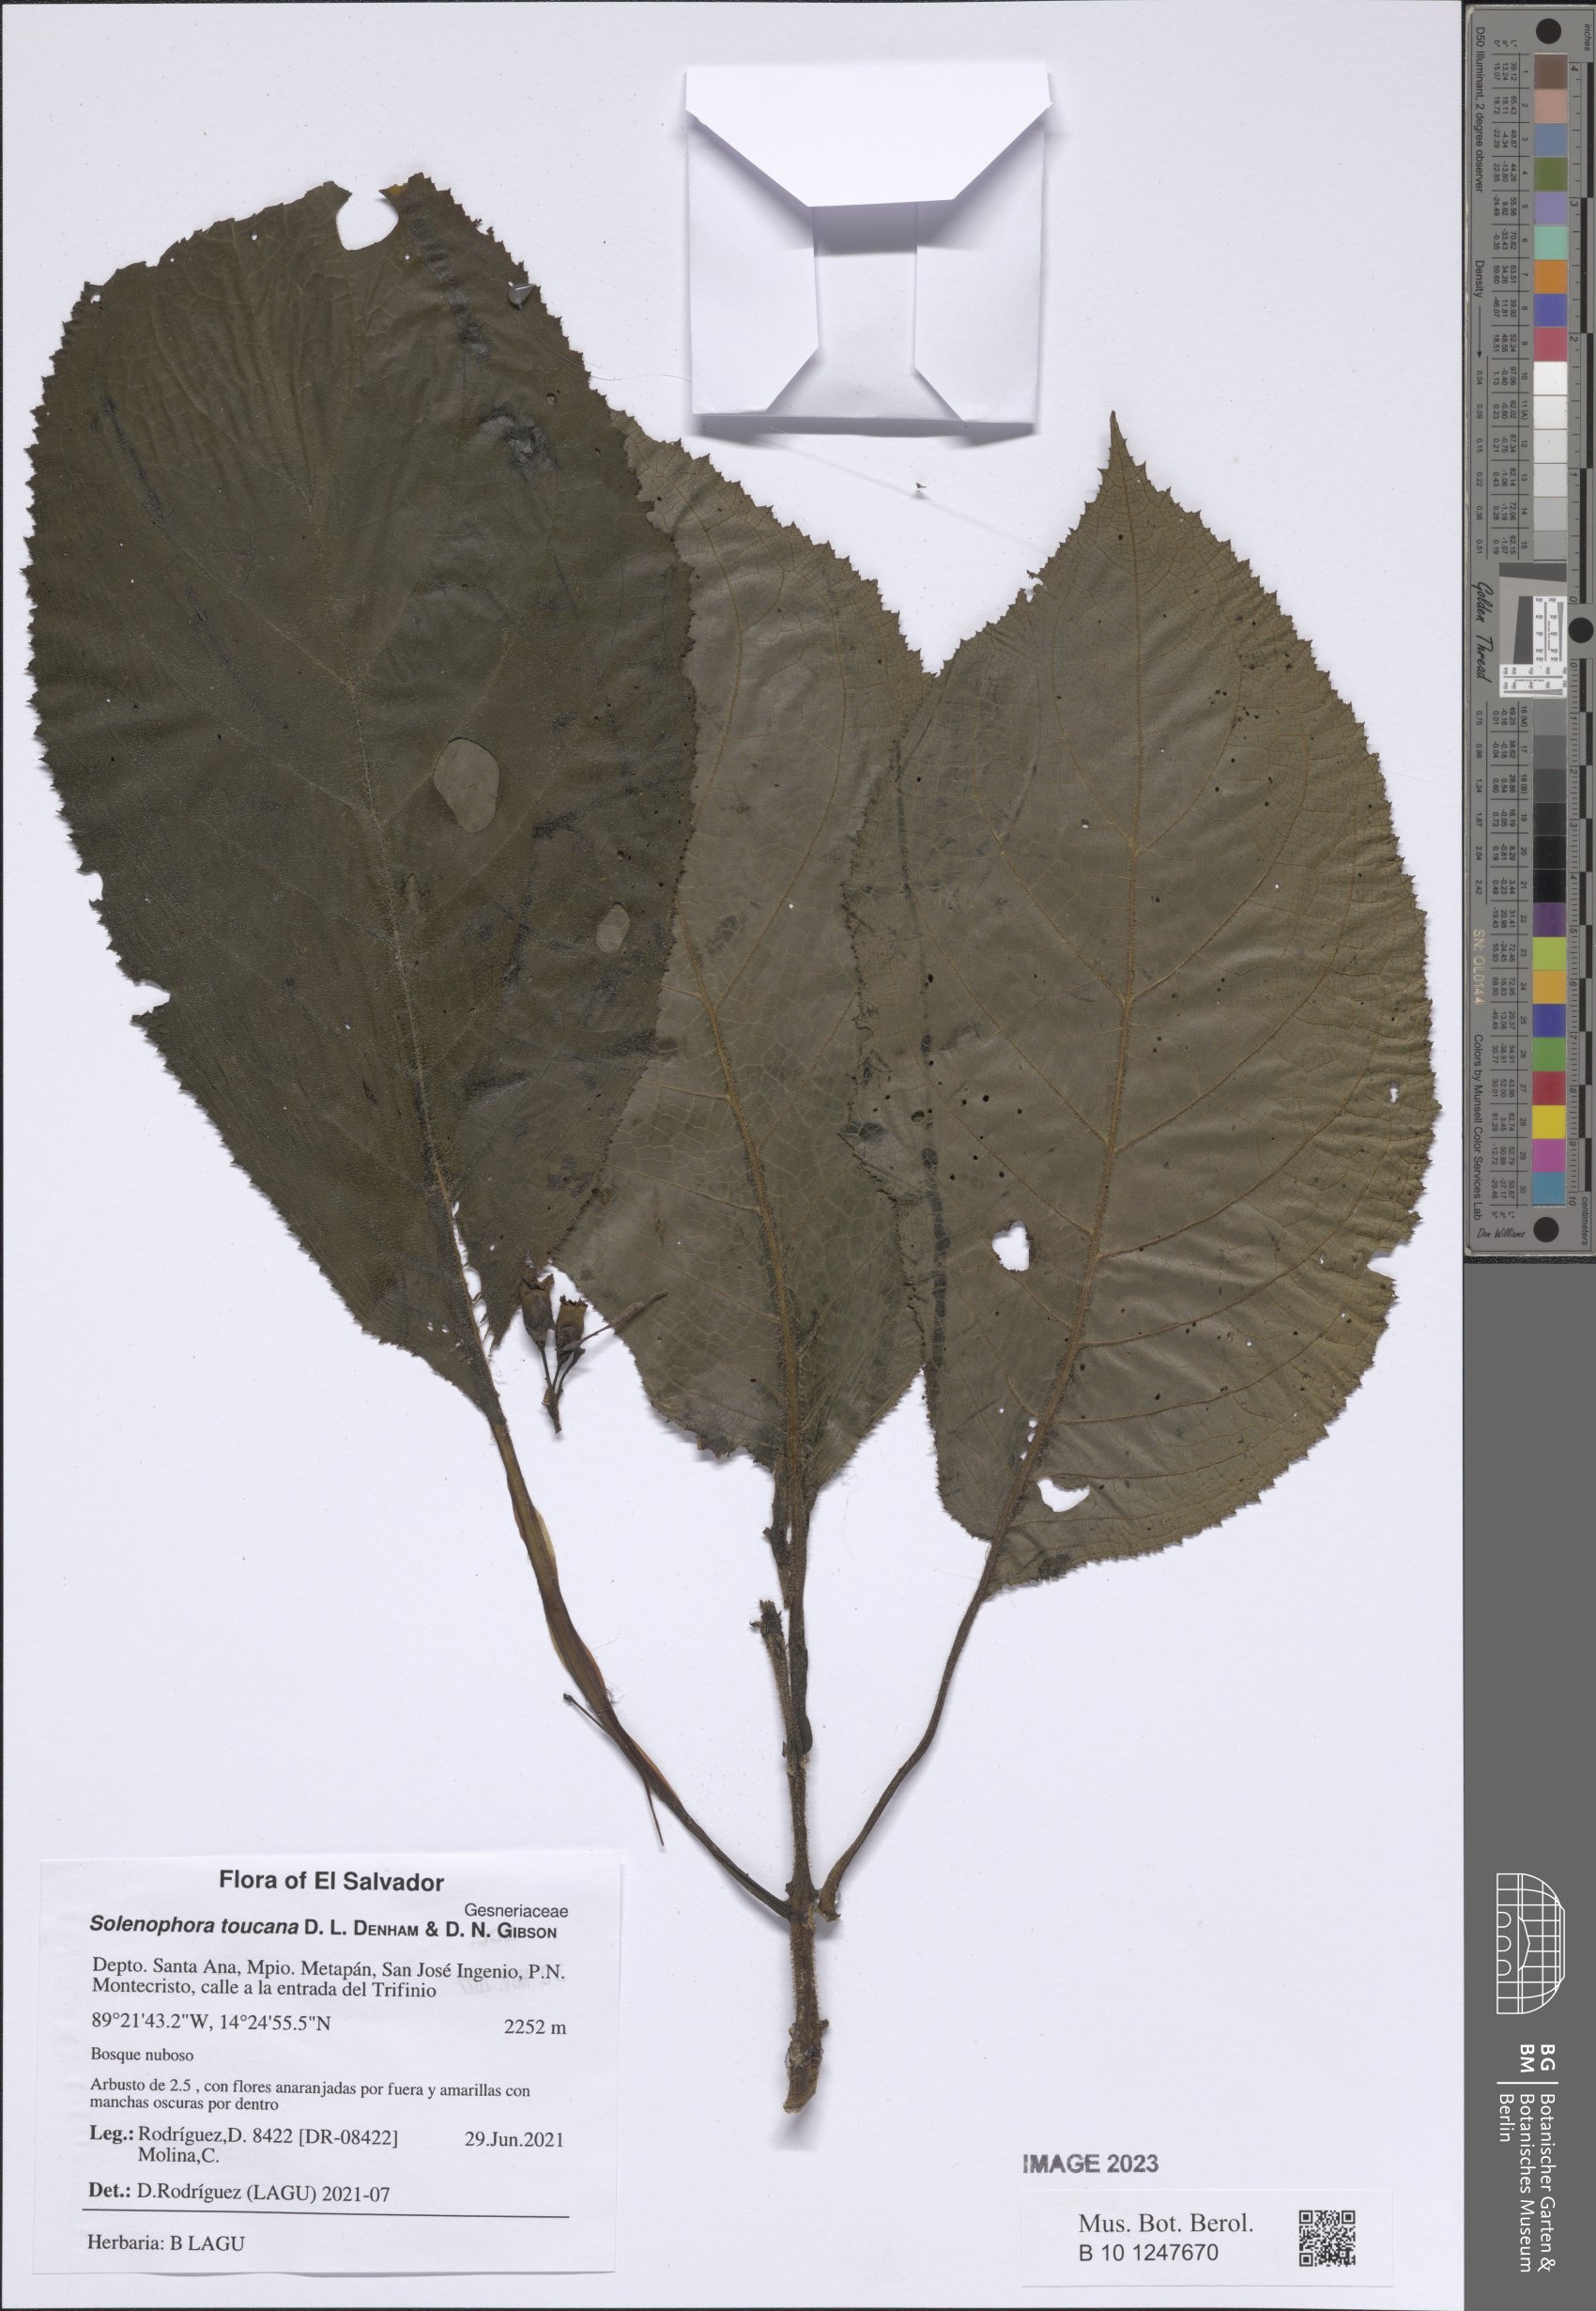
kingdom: Plantae
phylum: Tracheophyta
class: Magnoliopsida
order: Lamiales
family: Gesneriaceae
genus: Solenophora
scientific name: Solenophora calycosa
